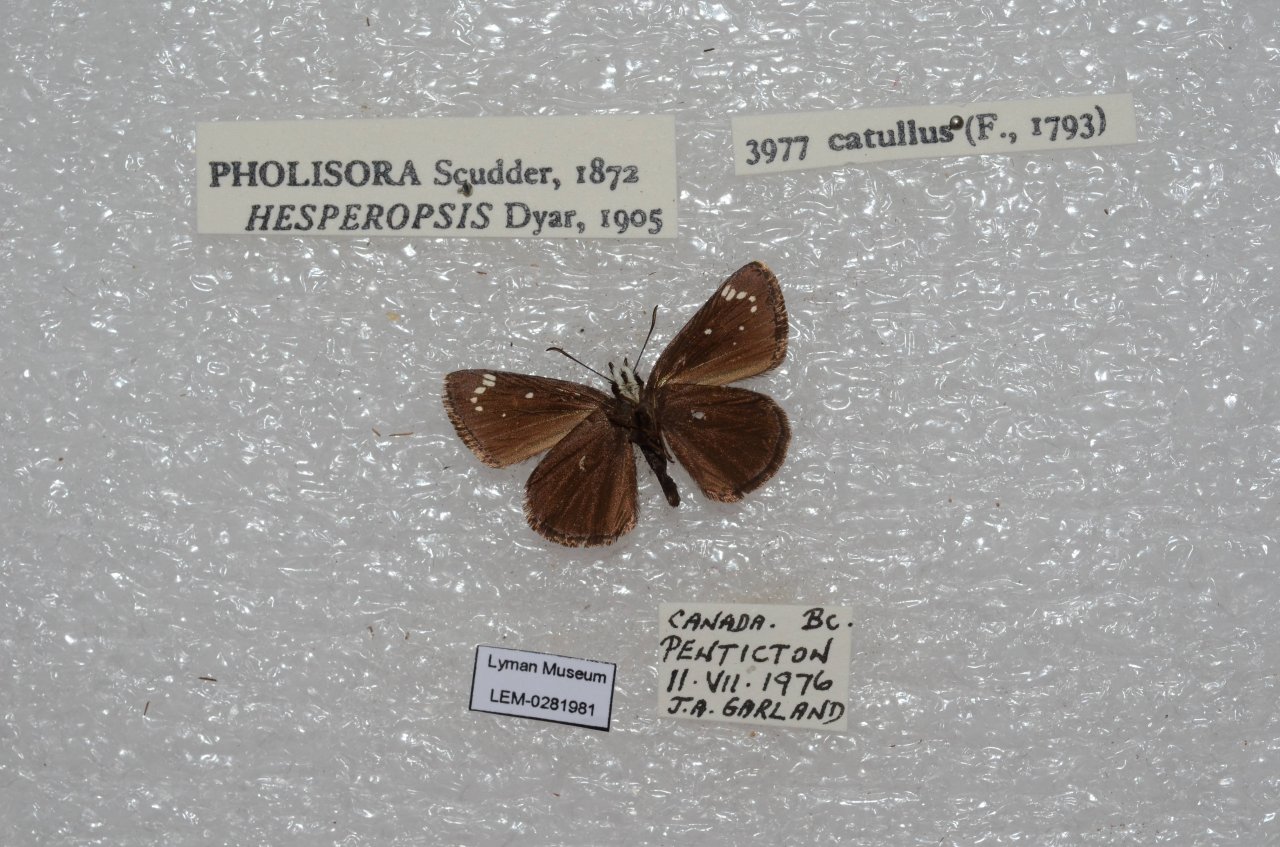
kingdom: Animalia
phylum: Arthropoda
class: Insecta
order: Lepidoptera
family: Hesperiidae
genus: Pholisora
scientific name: Pholisora catullus
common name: Common Sootywing
